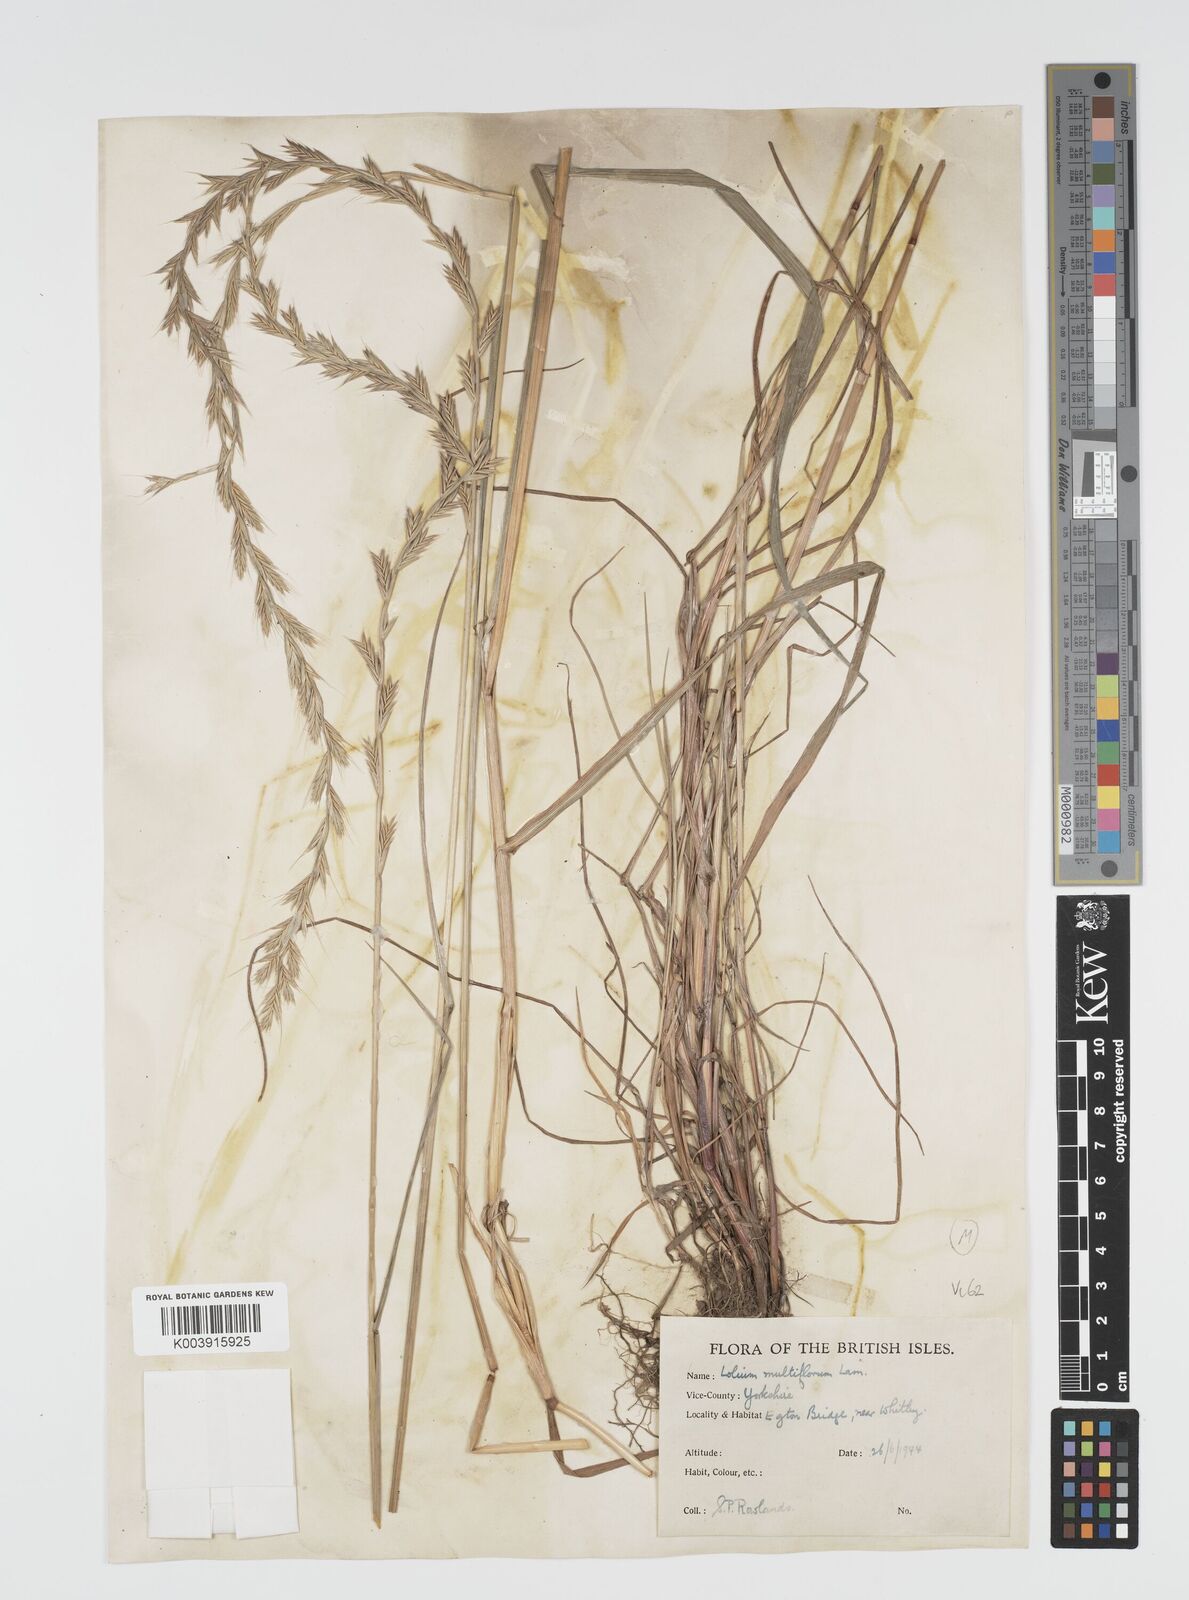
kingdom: Plantae
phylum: Tracheophyta
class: Liliopsida
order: Poales
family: Poaceae
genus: Lolium
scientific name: Lolium multiflorum
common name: Annual ryegrass
